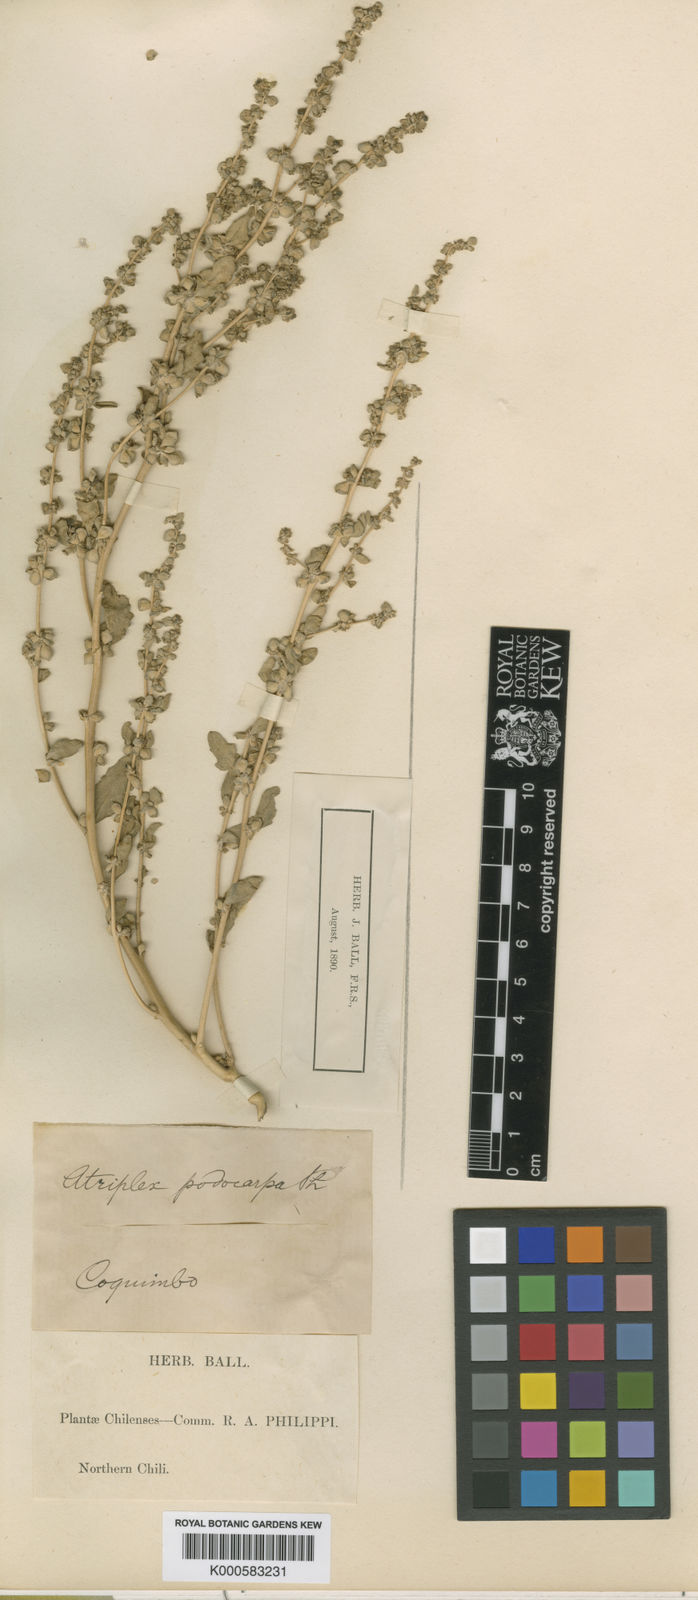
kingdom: Plantae
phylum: Tracheophyta
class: Magnoliopsida
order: Caryophyllales
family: Amaranthaceae
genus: Atriplex
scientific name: Atriplex retusa
